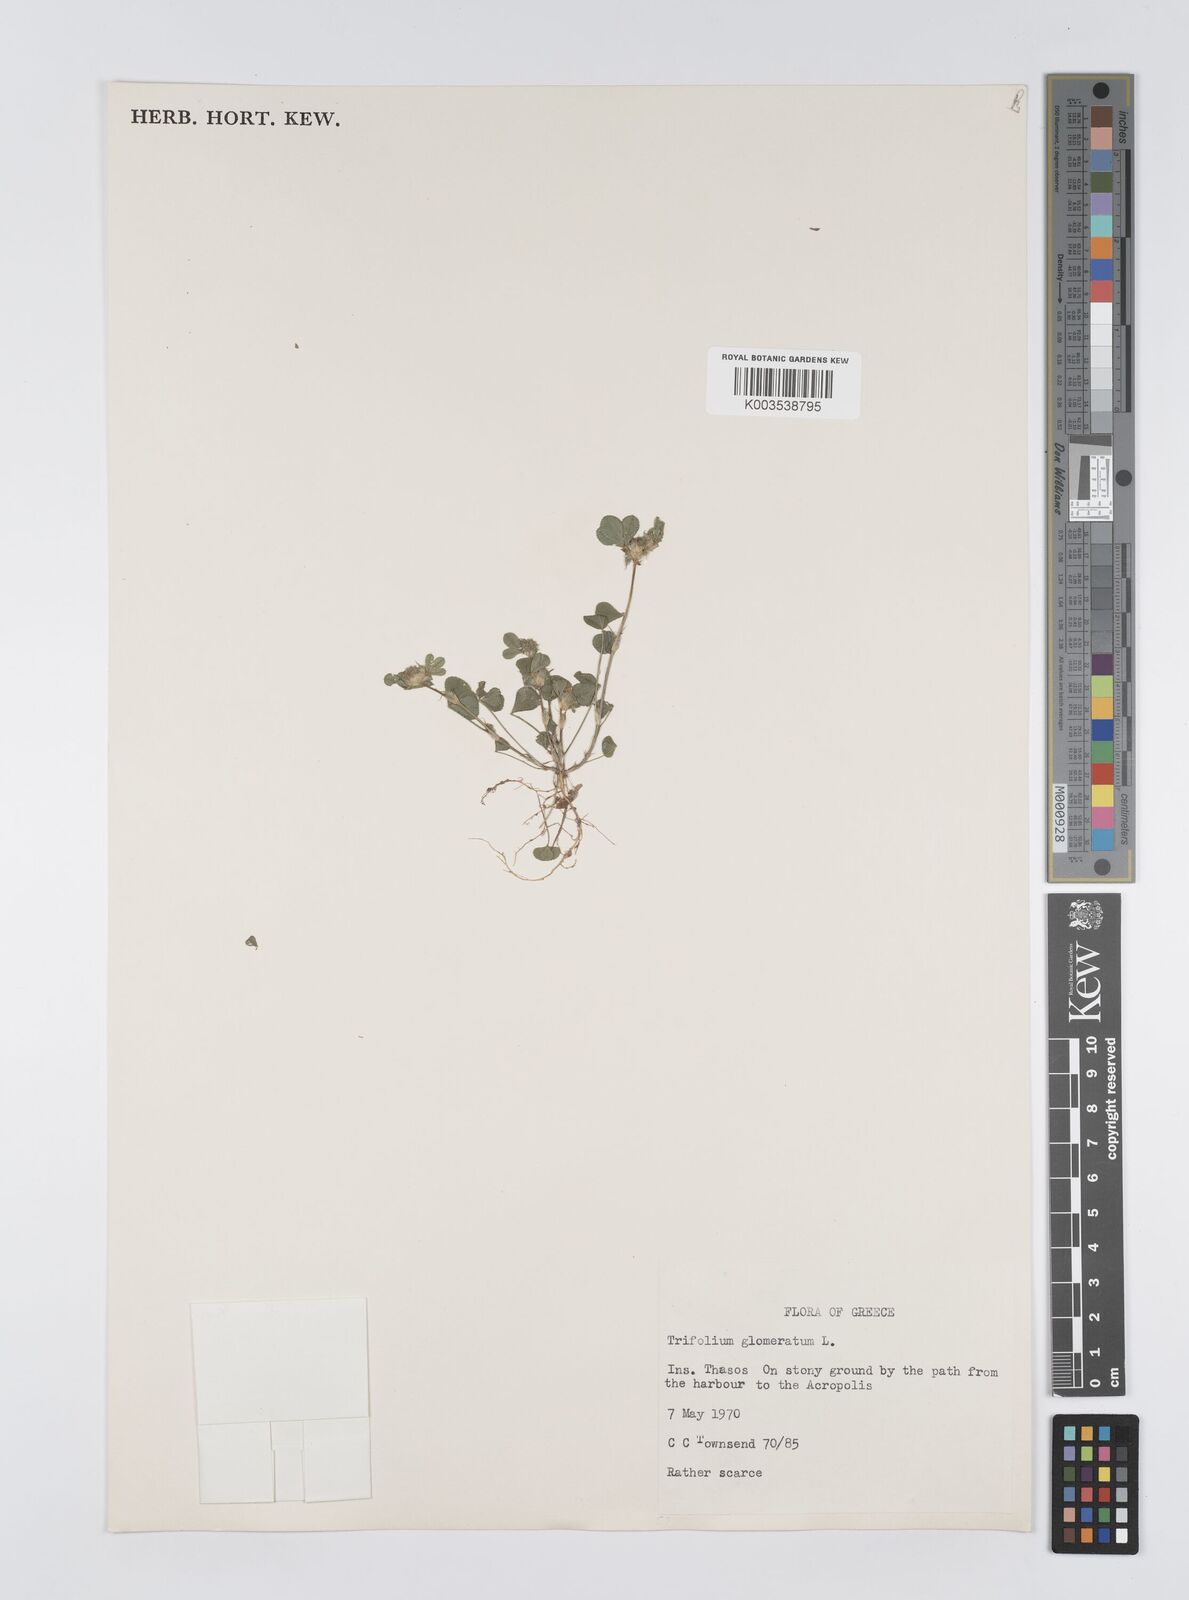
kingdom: Plantae
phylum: Tracheophyta
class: Magnoliopsida
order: Fabales
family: Fabaceae
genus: Trifolium
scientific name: Trifolium glomeratum
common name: Clustered clover
